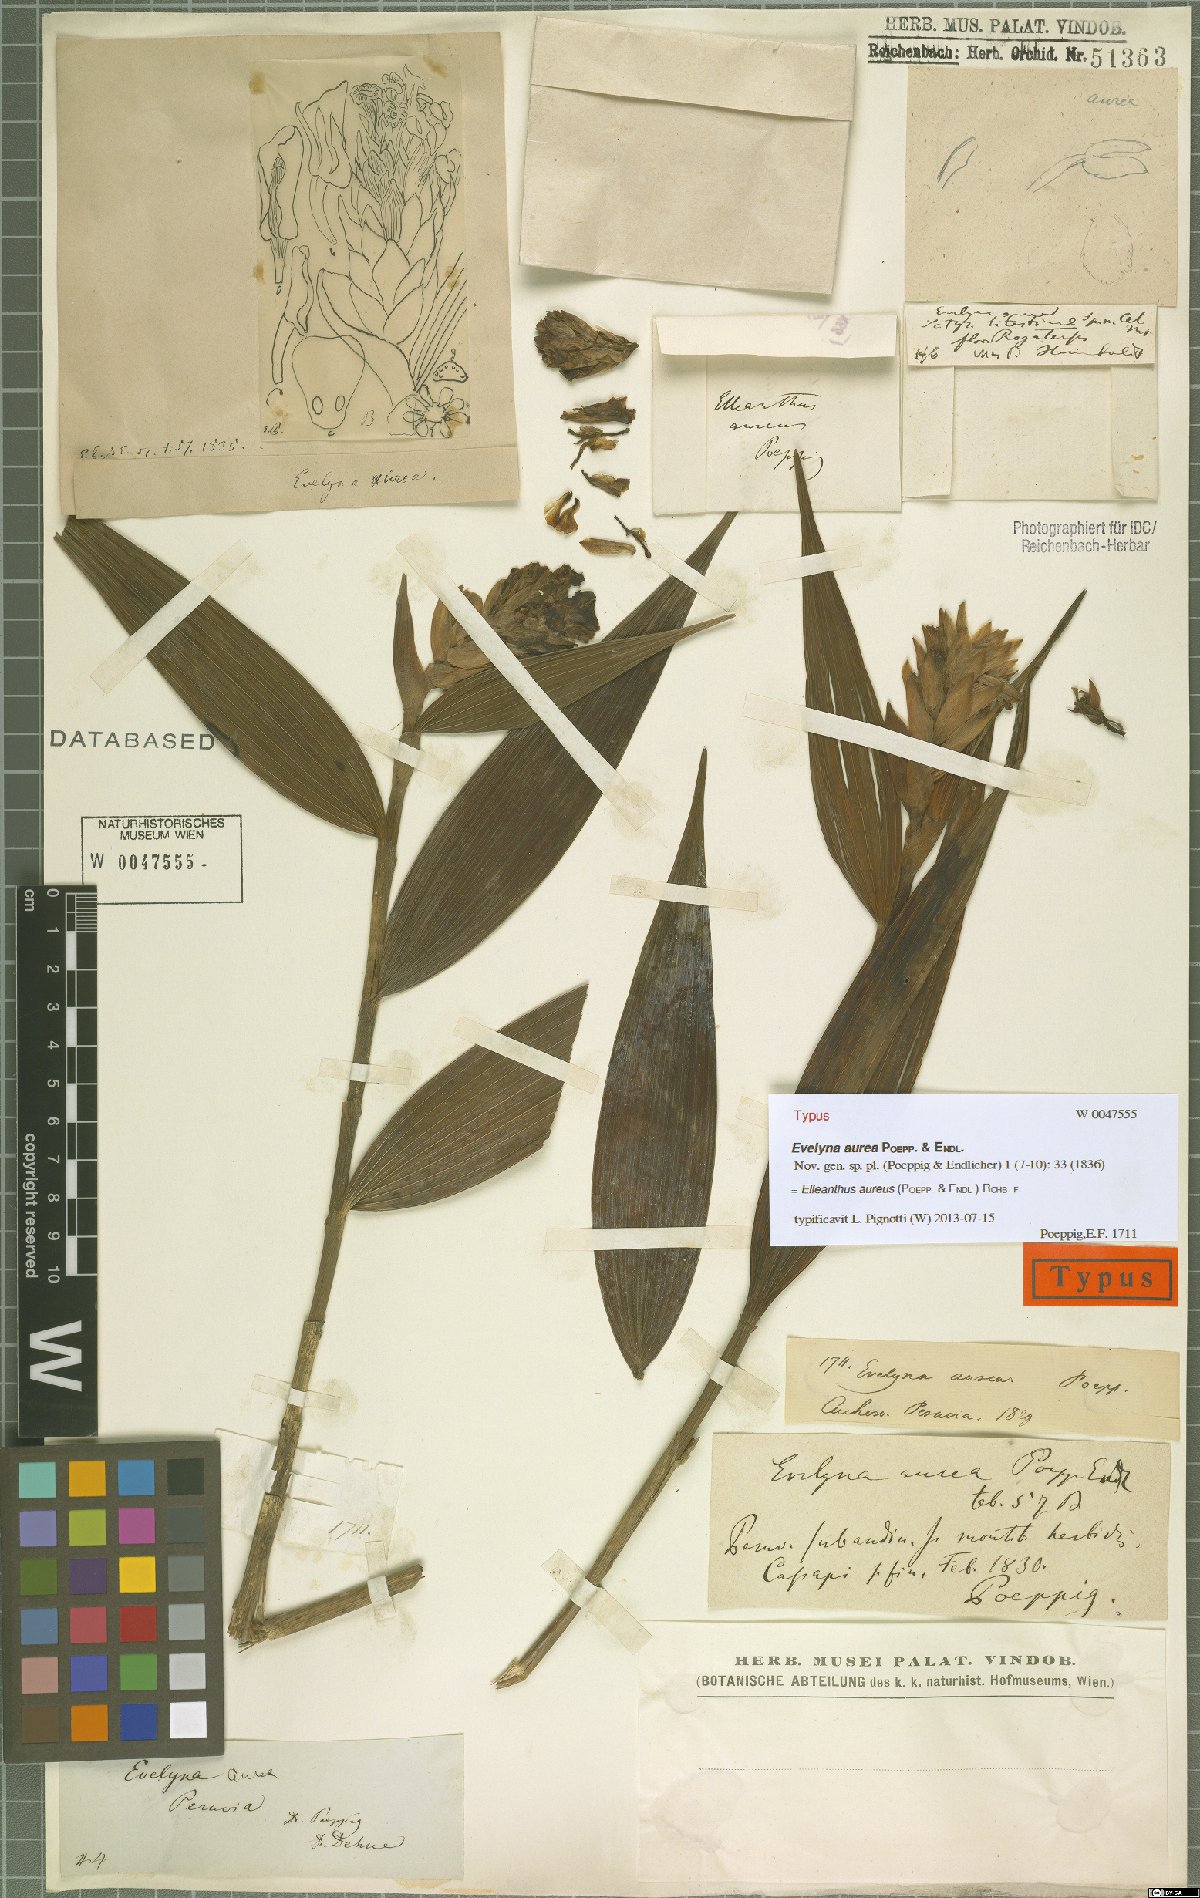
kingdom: Plantae
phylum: Tracheophyta
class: Liliopsida
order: Asparagales
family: Orchidaceae
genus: Elleanthus
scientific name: Elleanthus aureus
